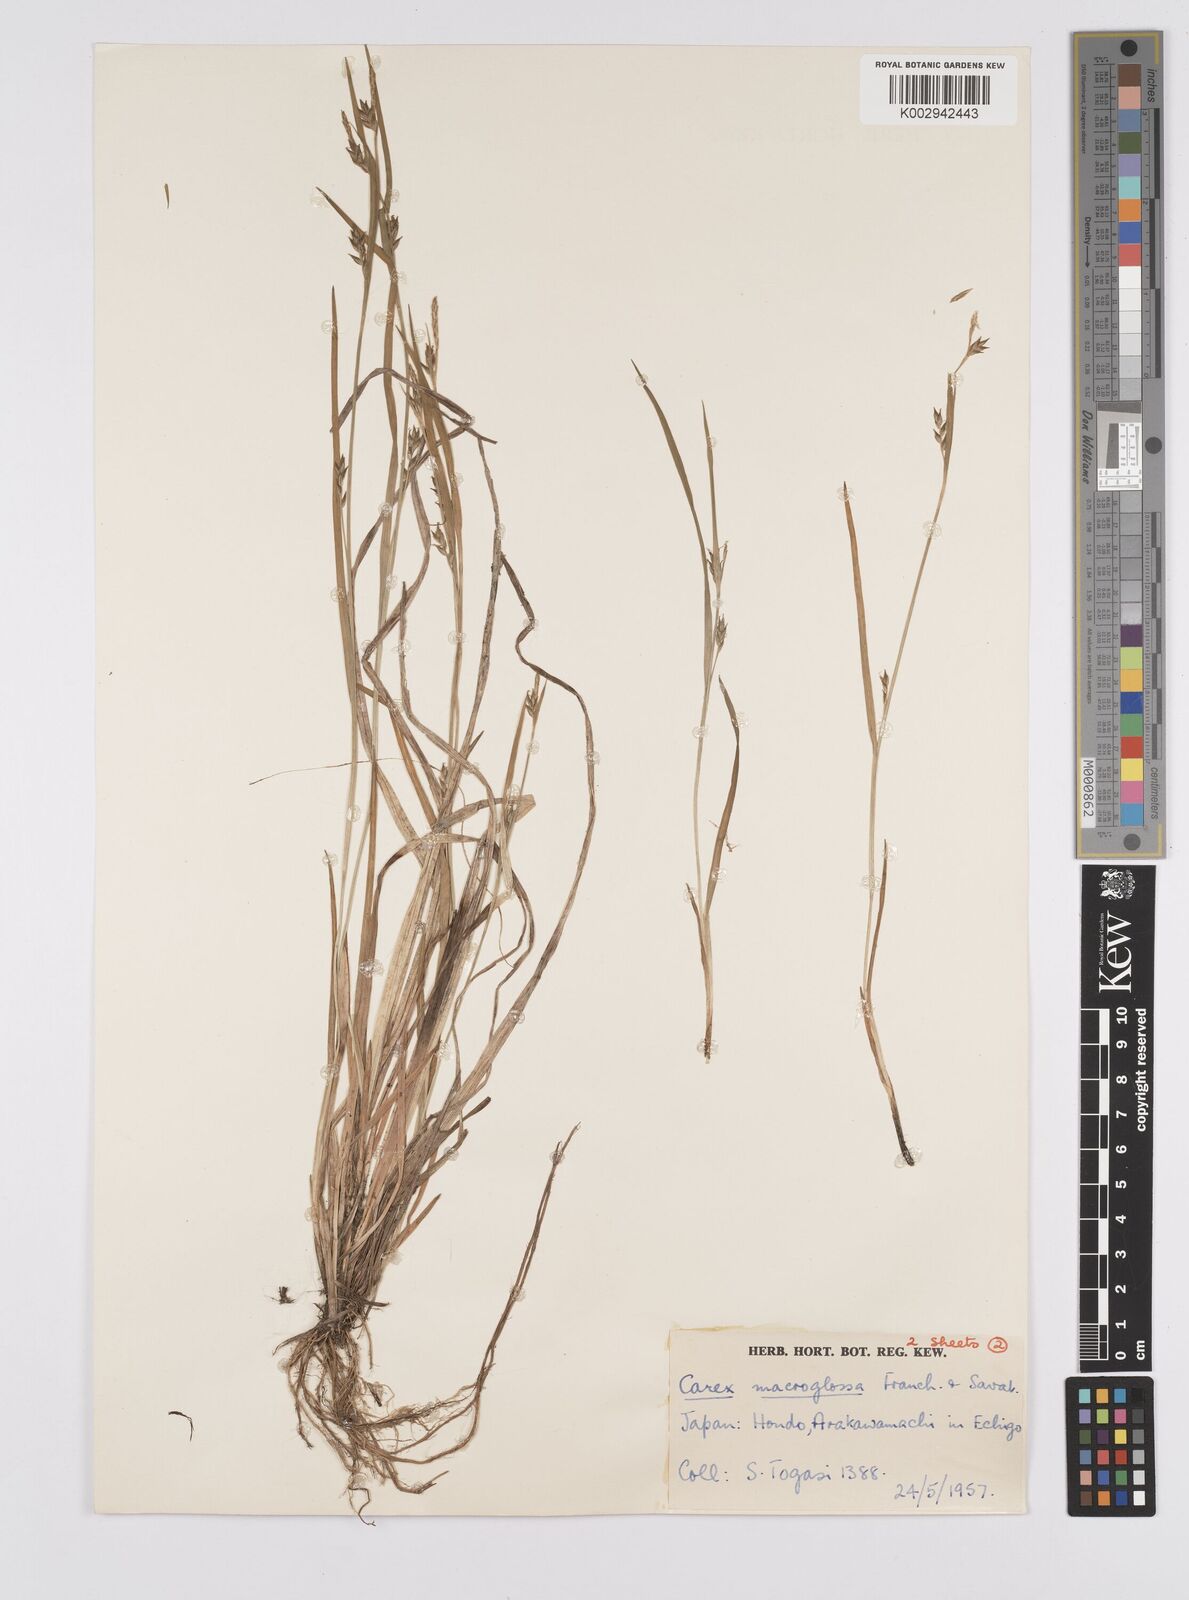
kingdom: Plantae
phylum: Tracheophyta
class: Liliopsida
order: Poales
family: Cyperaceae
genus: Carex
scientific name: Carex jackiana
